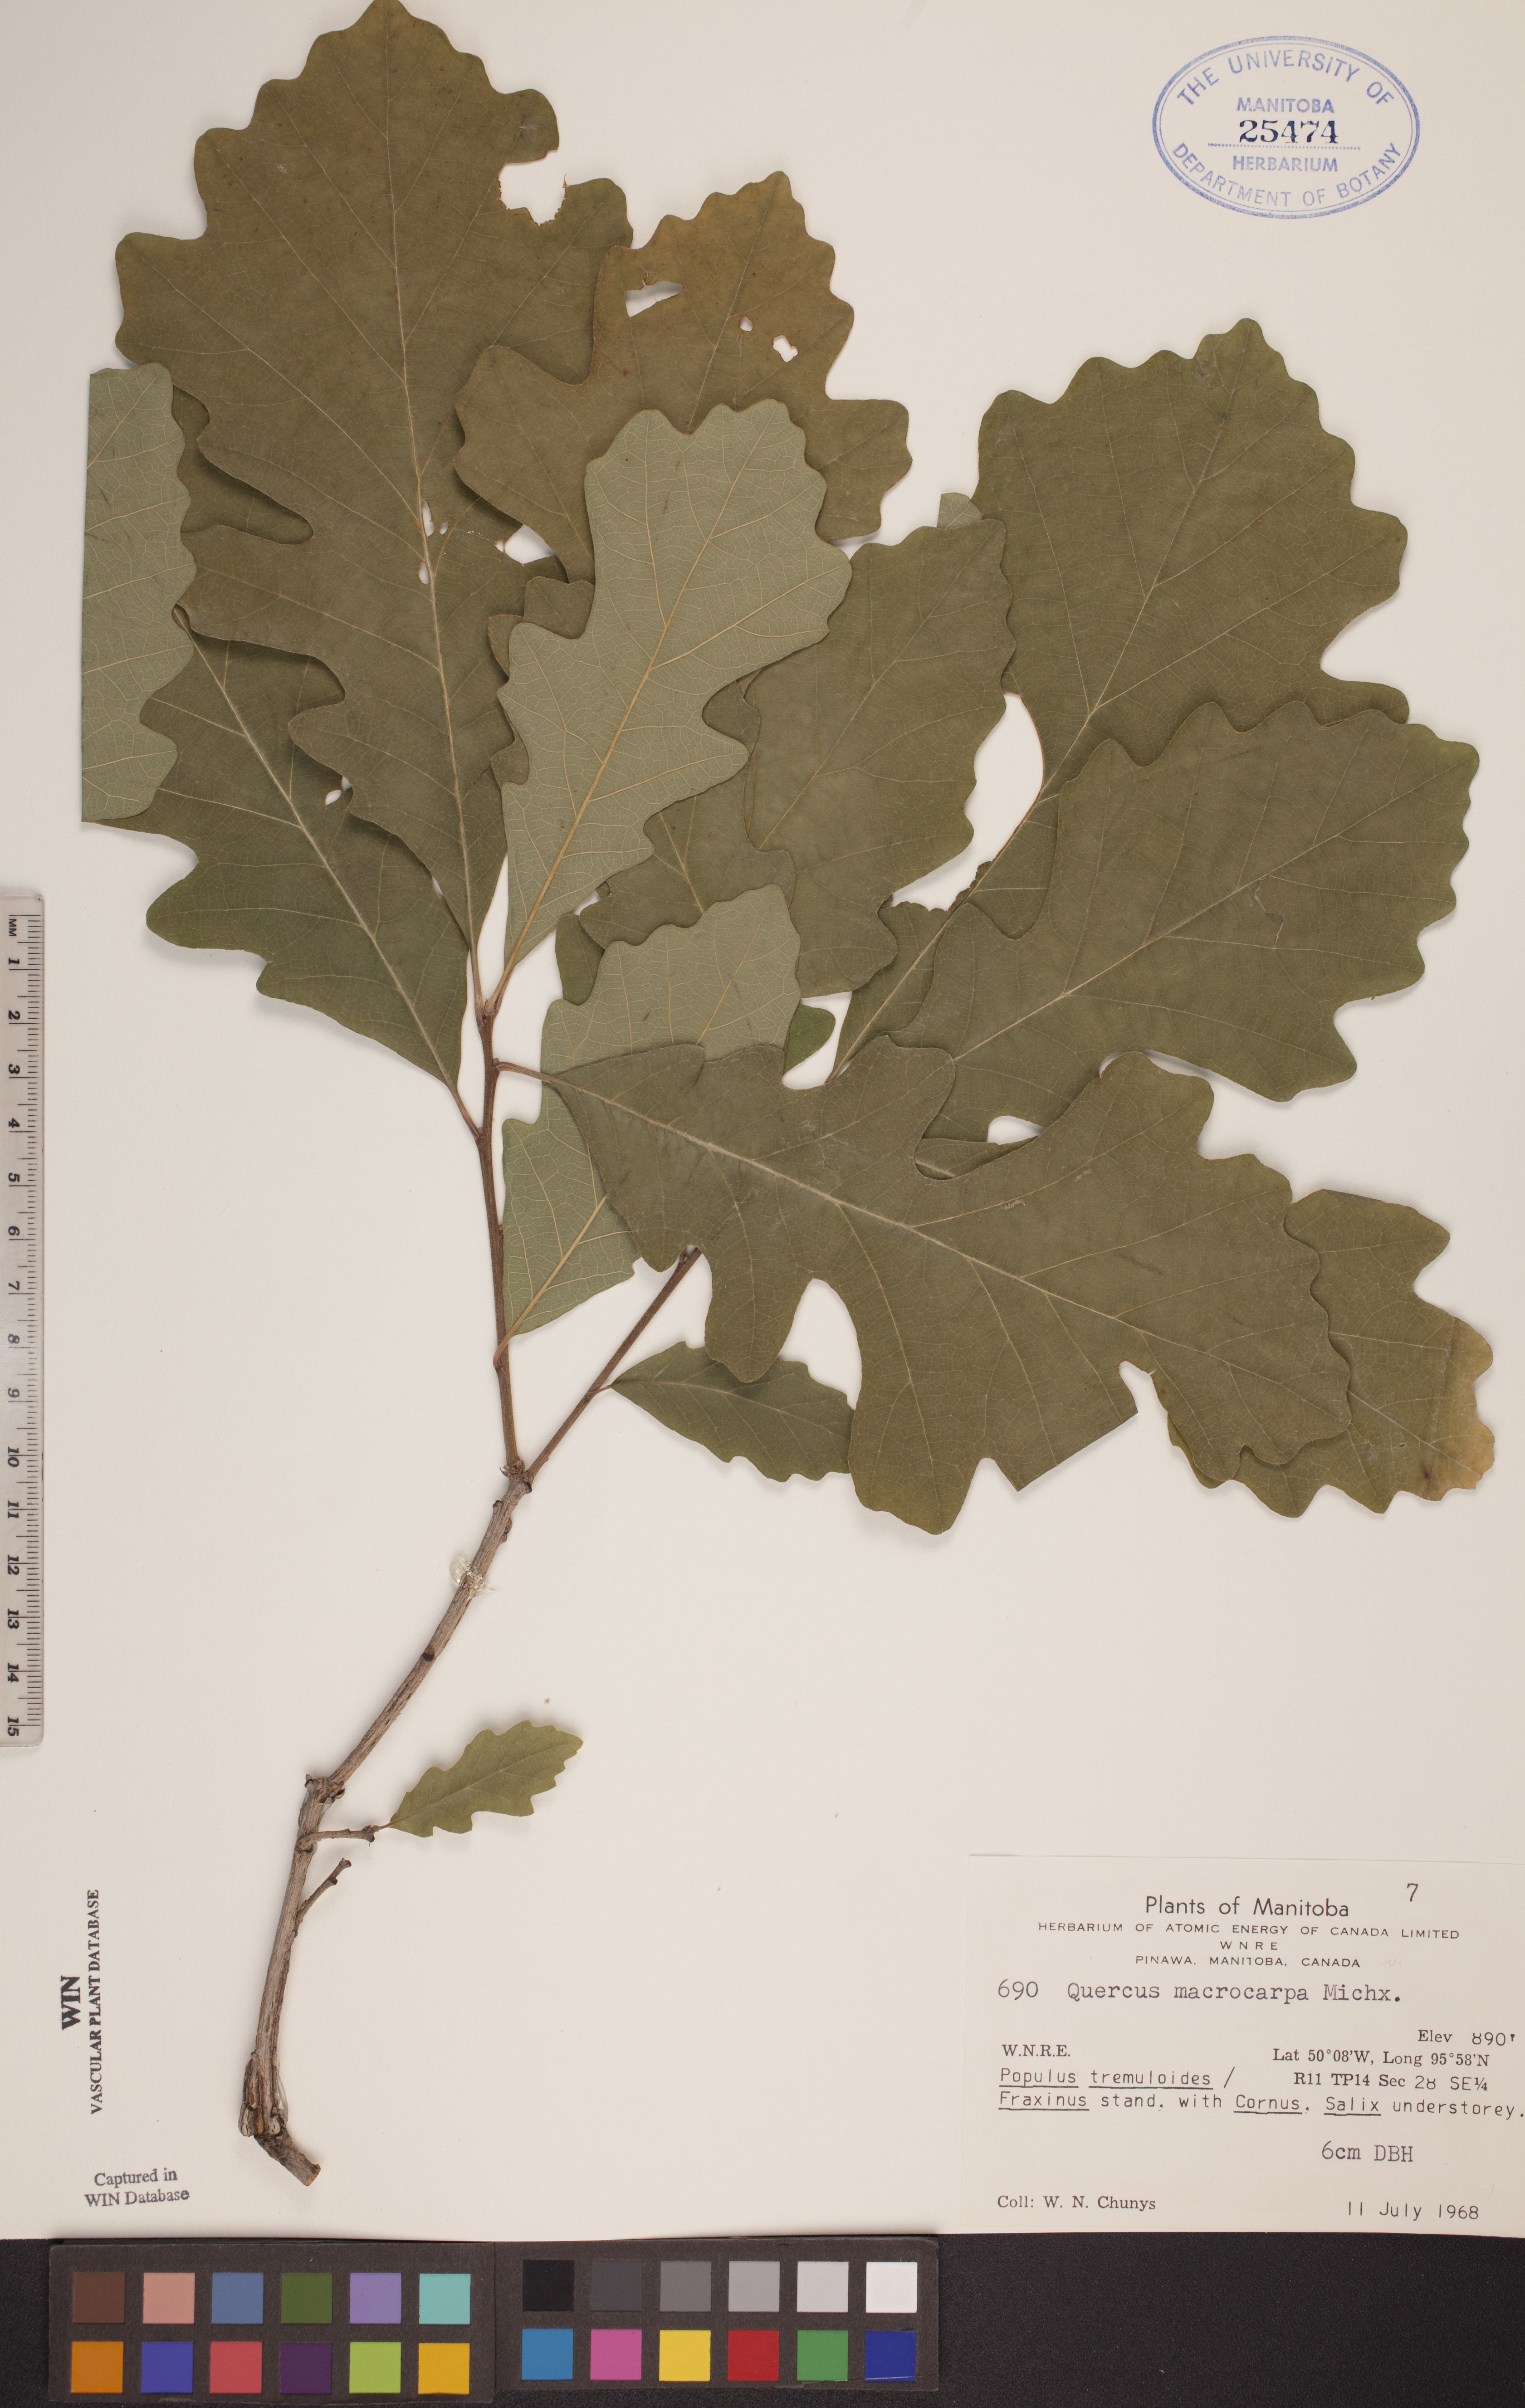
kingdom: Plantae
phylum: Tracheophyta
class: Magnoliopsida
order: Fagales
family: Fagaceae
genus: Quercus
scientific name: Quercus macrocarpa
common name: Bur oak
